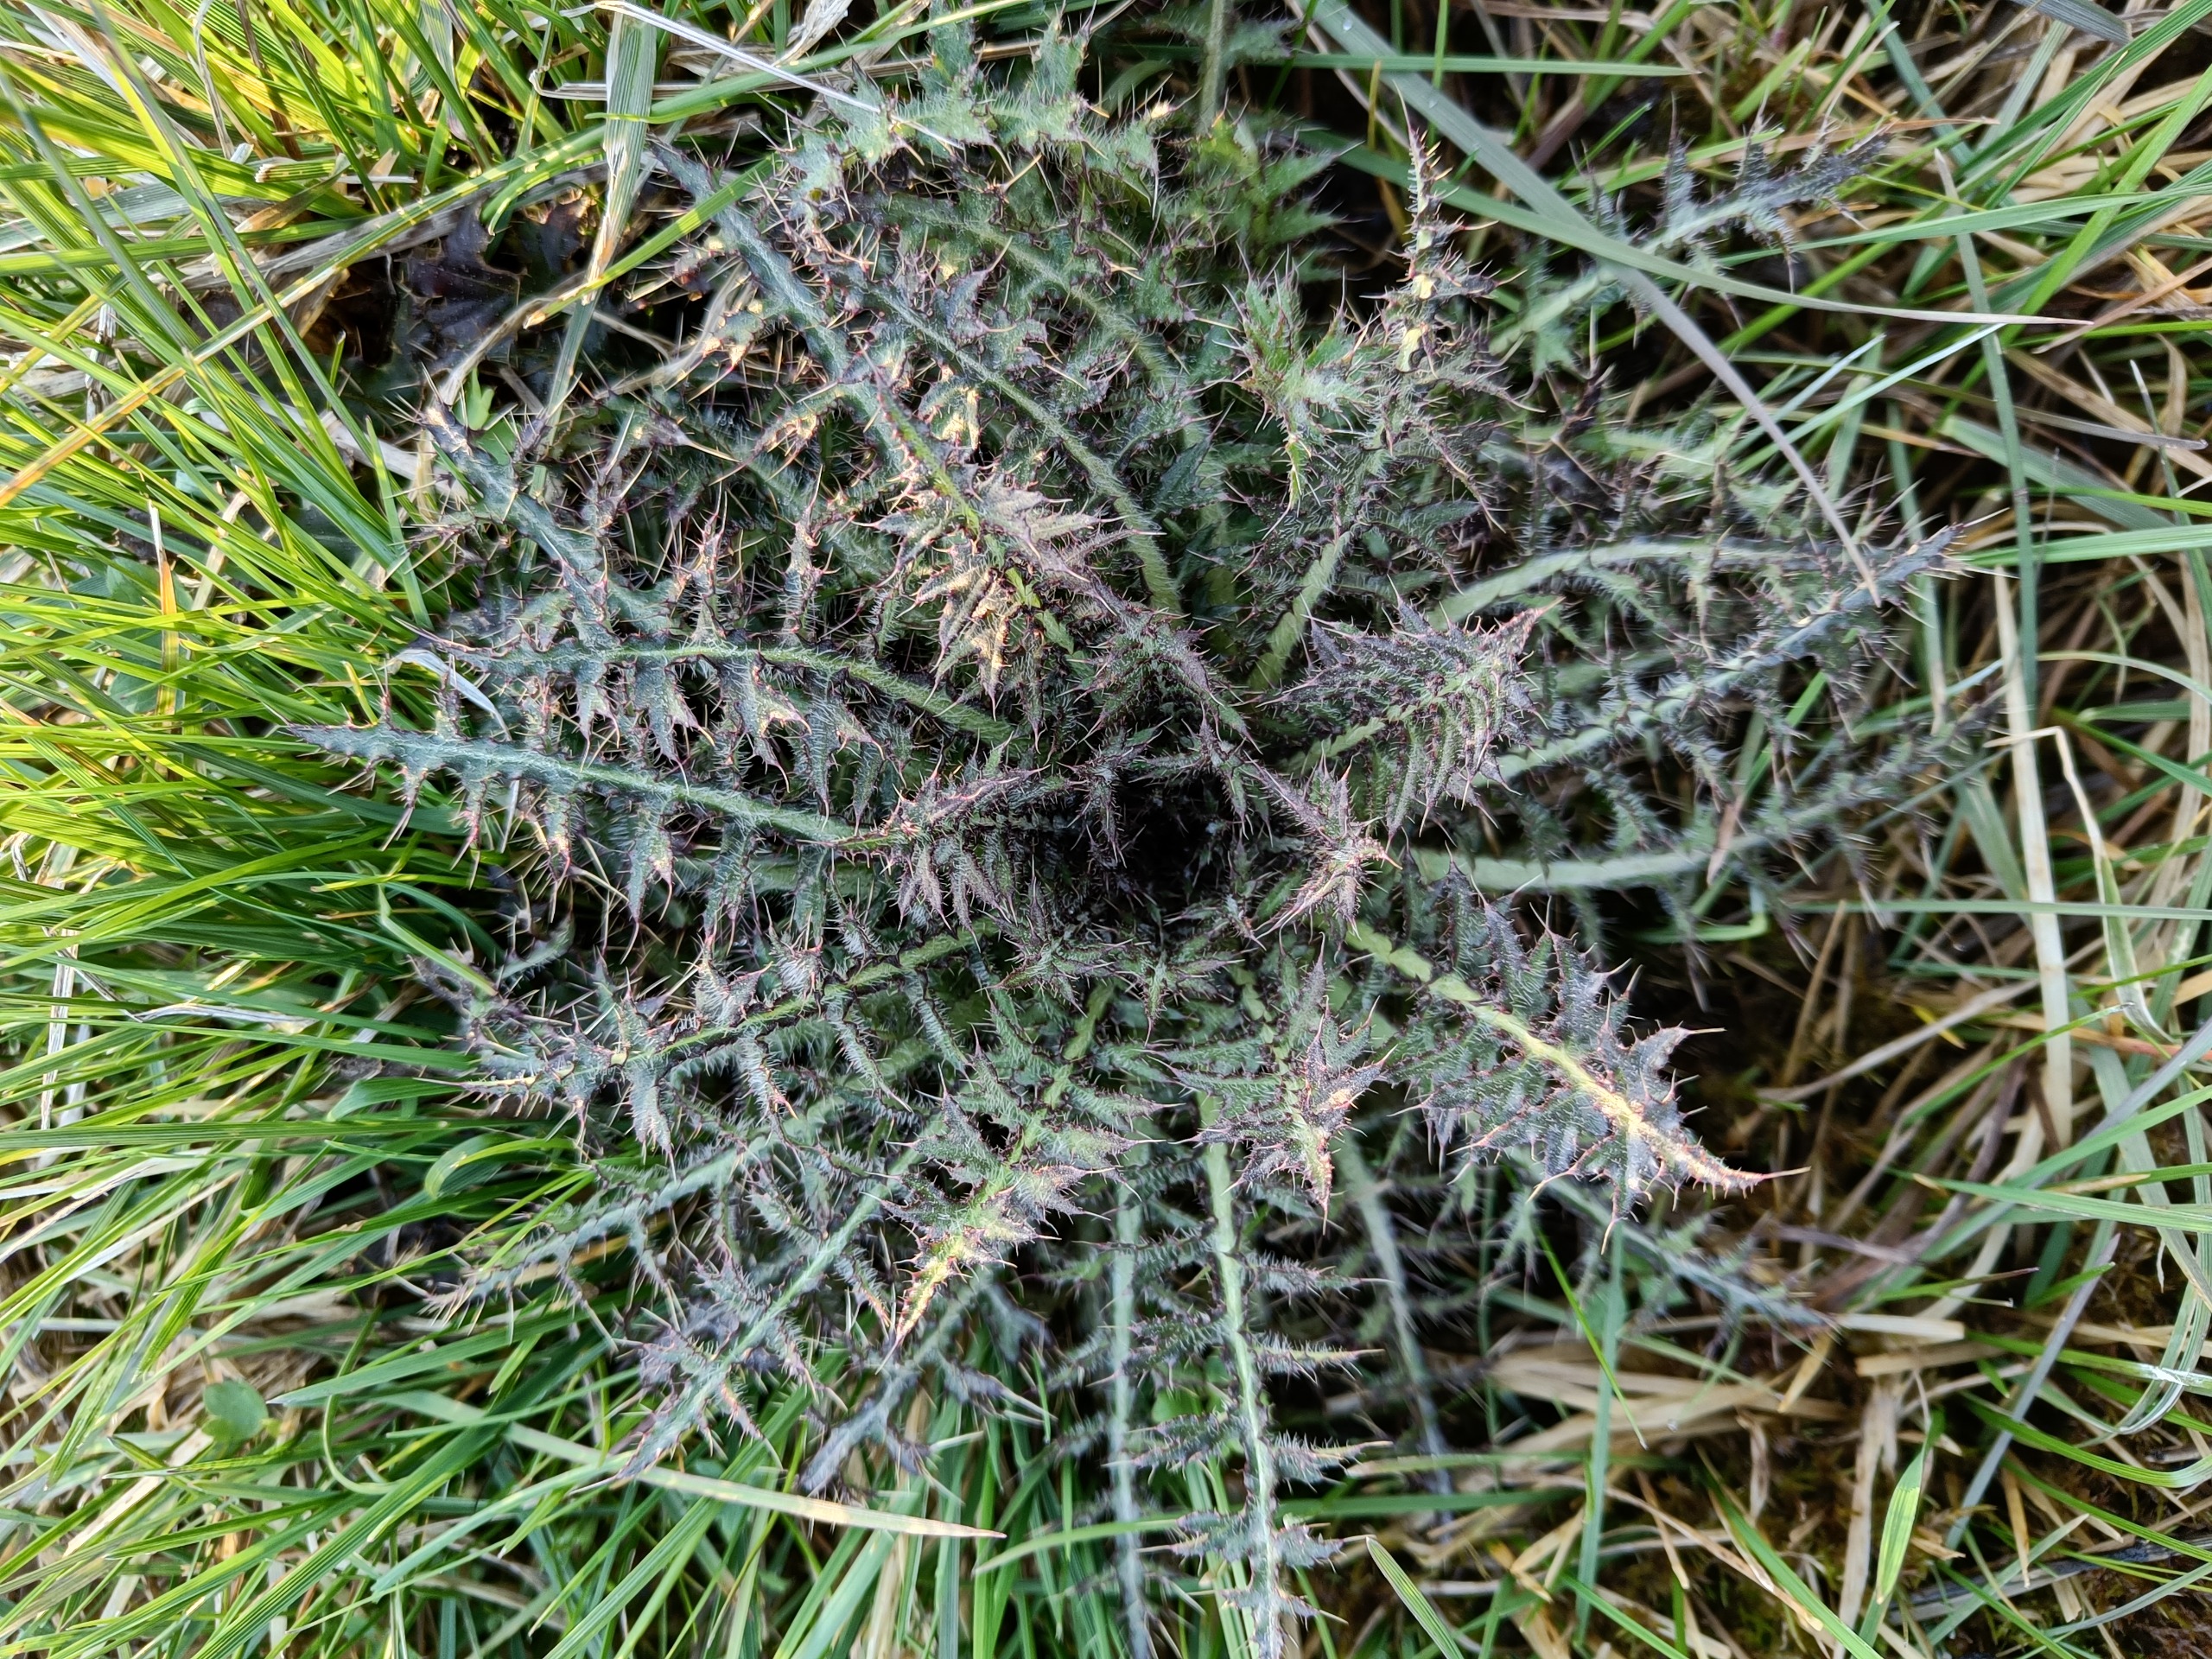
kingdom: Plantae
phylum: Tracheophyta
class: Magnoliopsida
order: Asterales
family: Asteraceae
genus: Cirsium
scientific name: Cirsium palustre
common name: Kær-tidsel
